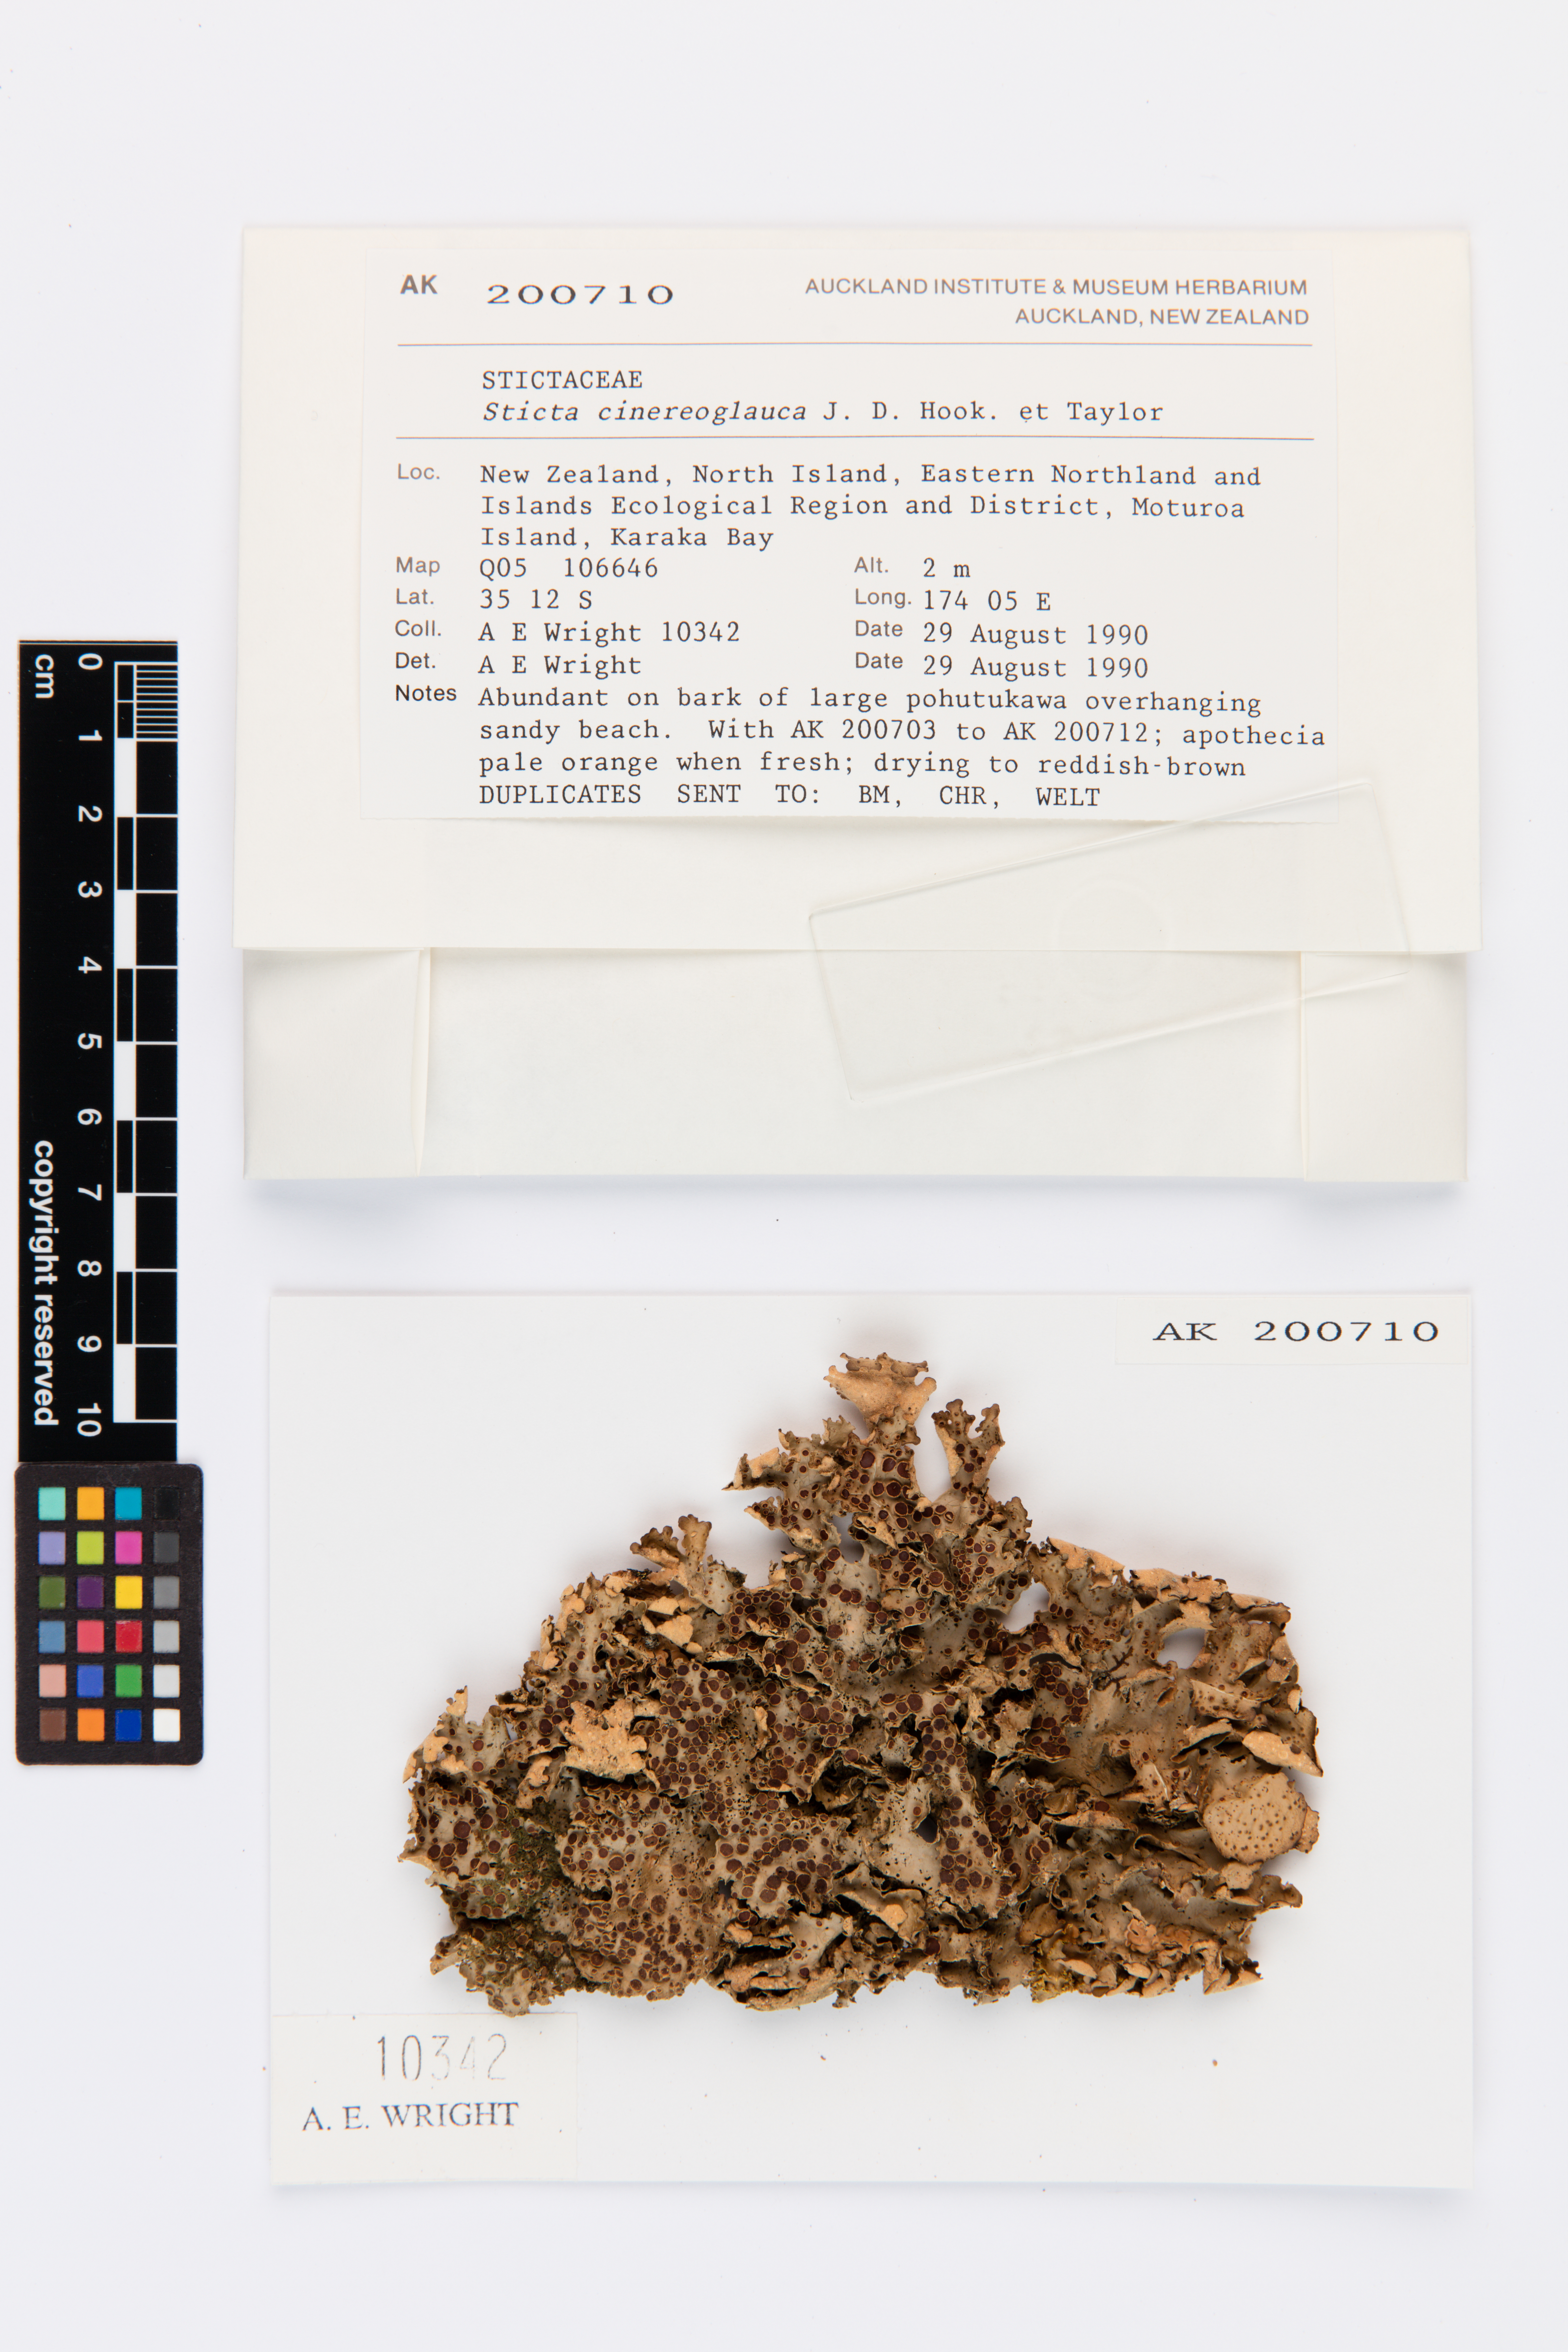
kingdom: Fungi
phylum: Ascomycota
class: Lecanoromycetes
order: Peltigerales
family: Lobariaceae
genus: Sticta
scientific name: Sticta cinereoglauca
